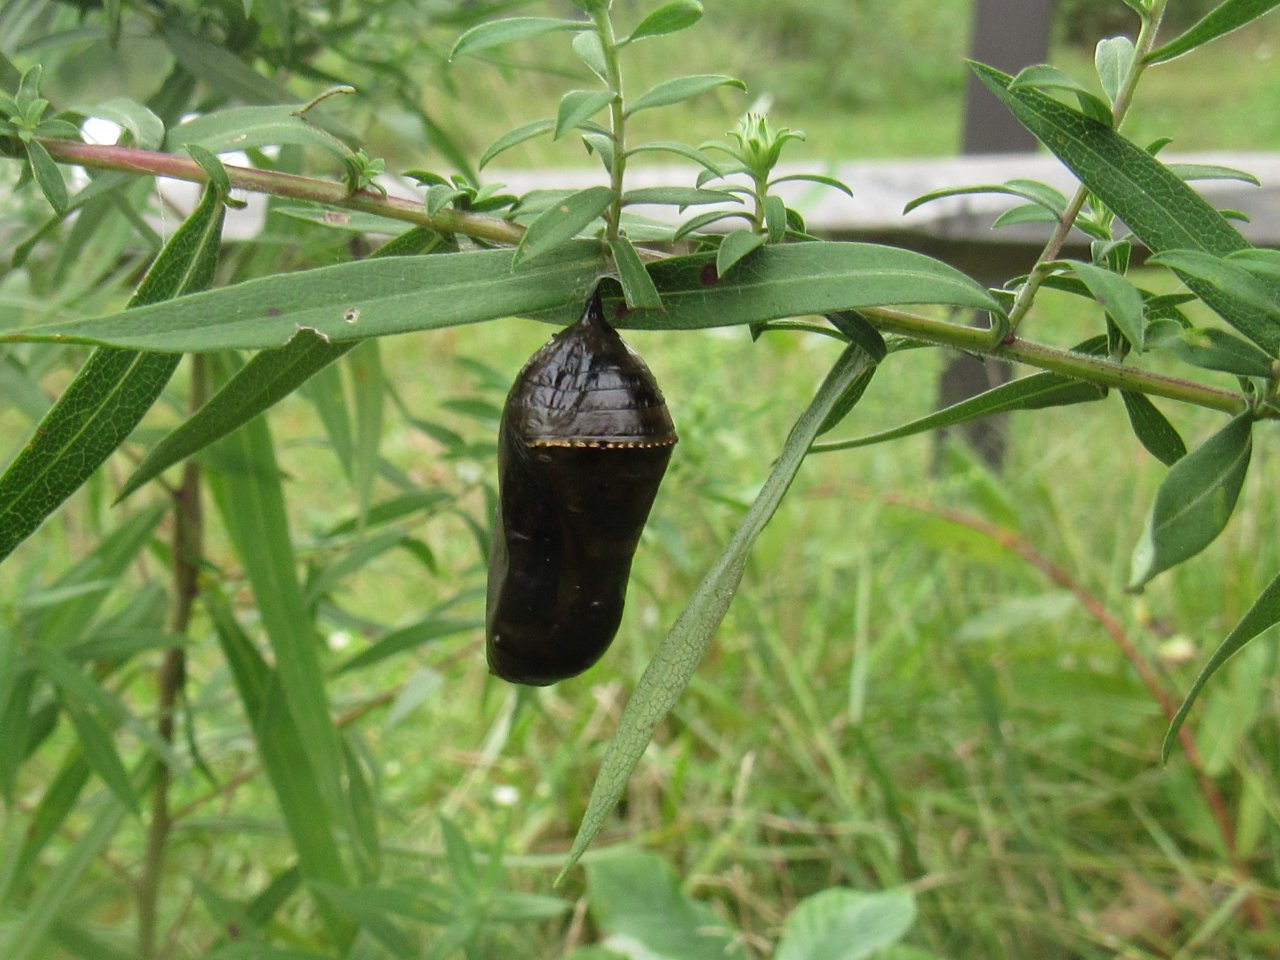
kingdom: Animalia
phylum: Arthropoda
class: Insecta
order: Lepidoptera
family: Nymphalidae
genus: Danaus
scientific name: Danaus plexippus
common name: Monarch
